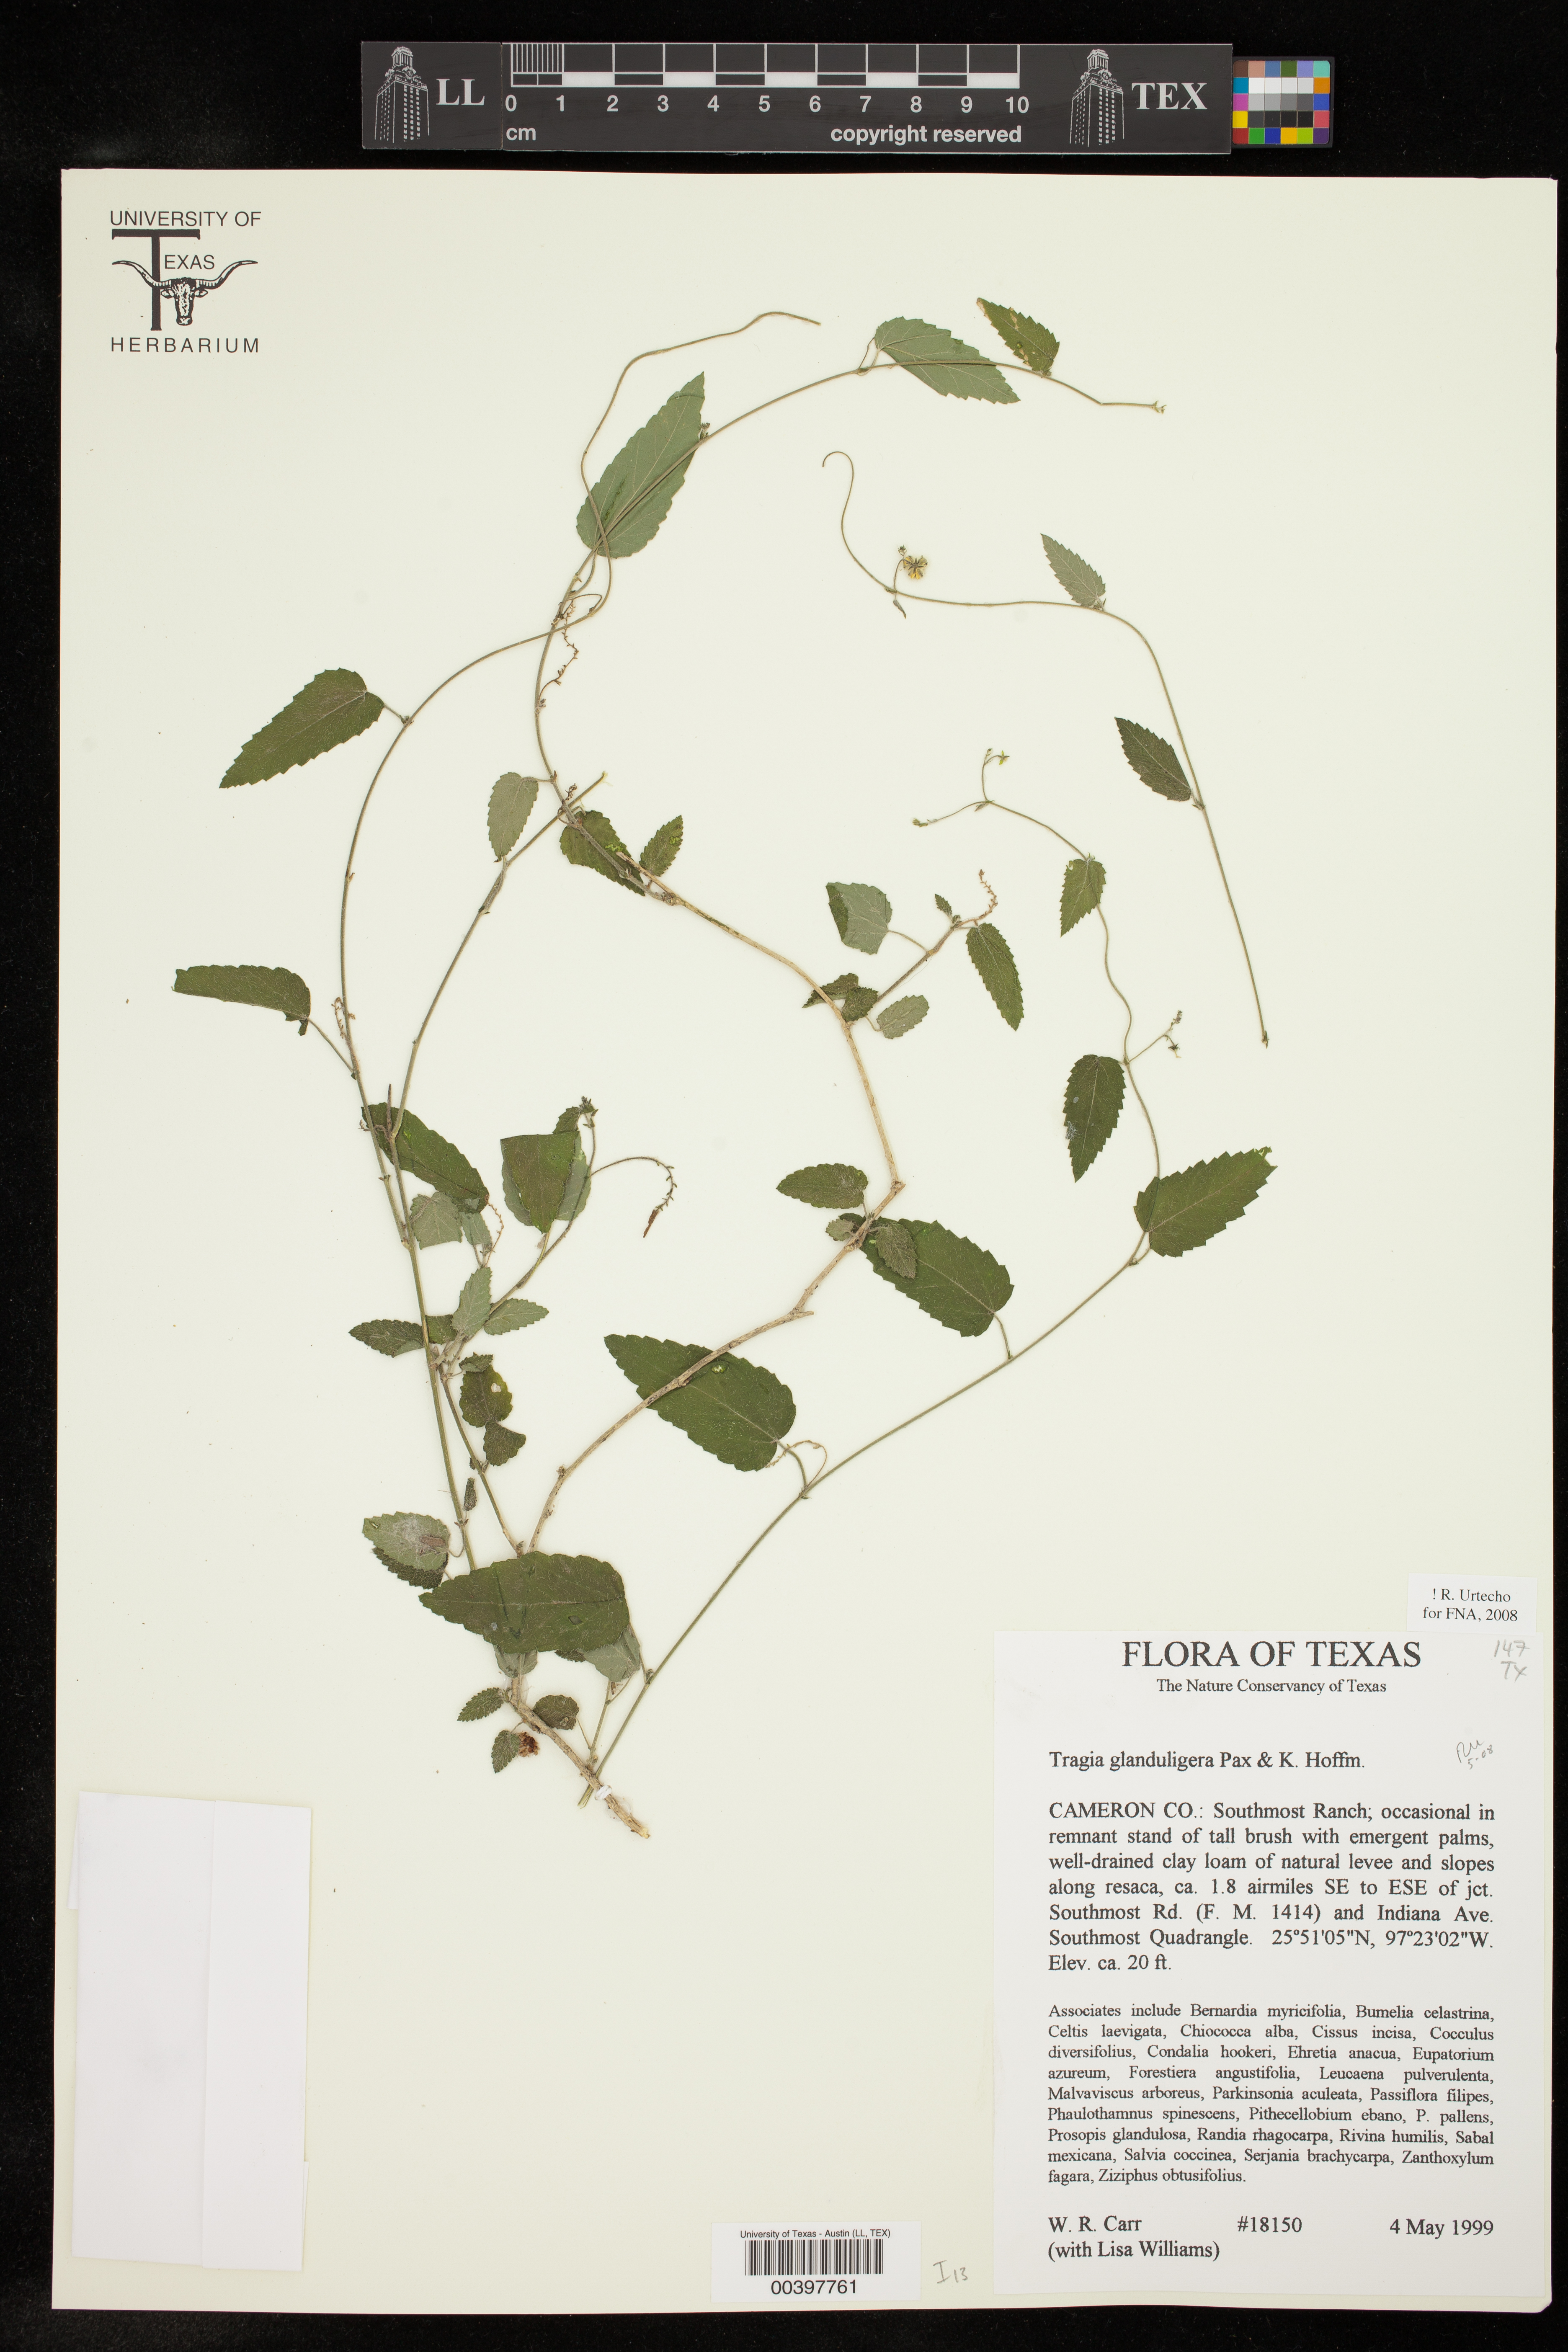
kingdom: Plantae
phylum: Tracheophyta
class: Magnoliopsida
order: Malpighiales
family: Euphorbiaceae
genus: Tragia
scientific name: Tragia glanduligera
